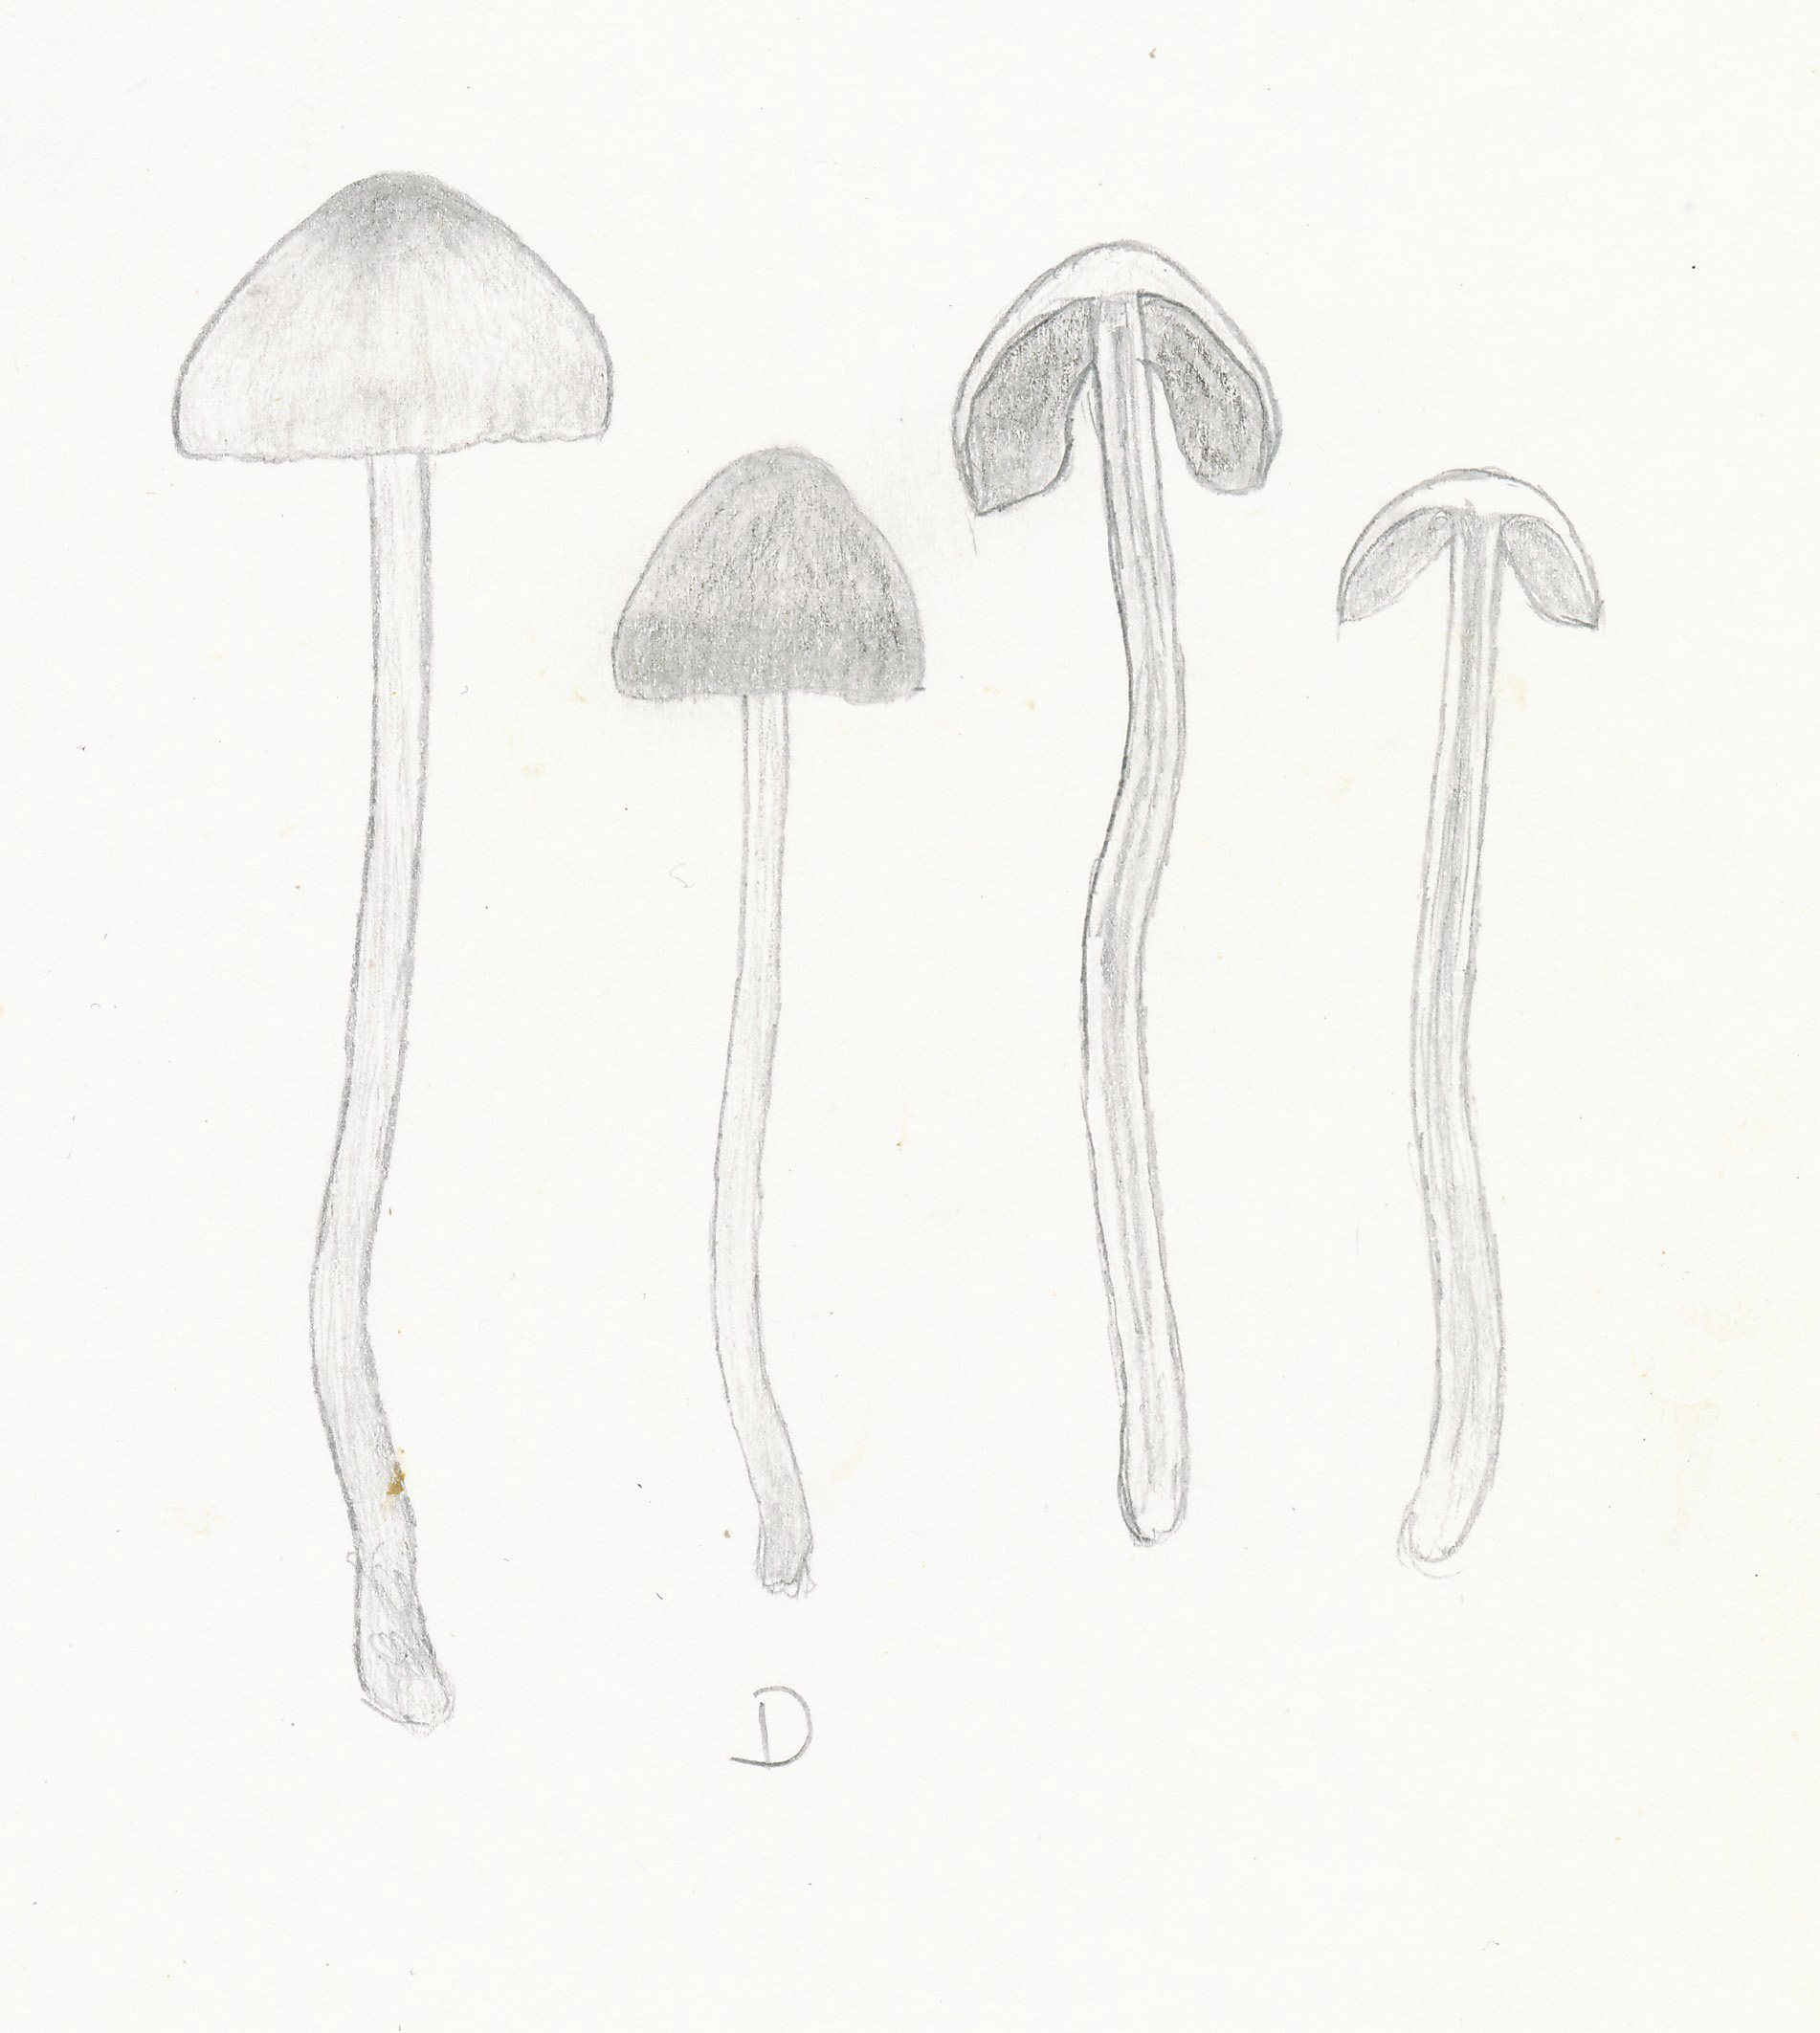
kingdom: Fungi
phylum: Basidiomycota
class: Agaricomycetes
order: Agaricales
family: Bolbitiaceae
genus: Panaeolina
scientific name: Panaeolina foenisecii
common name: høslætsvamp
